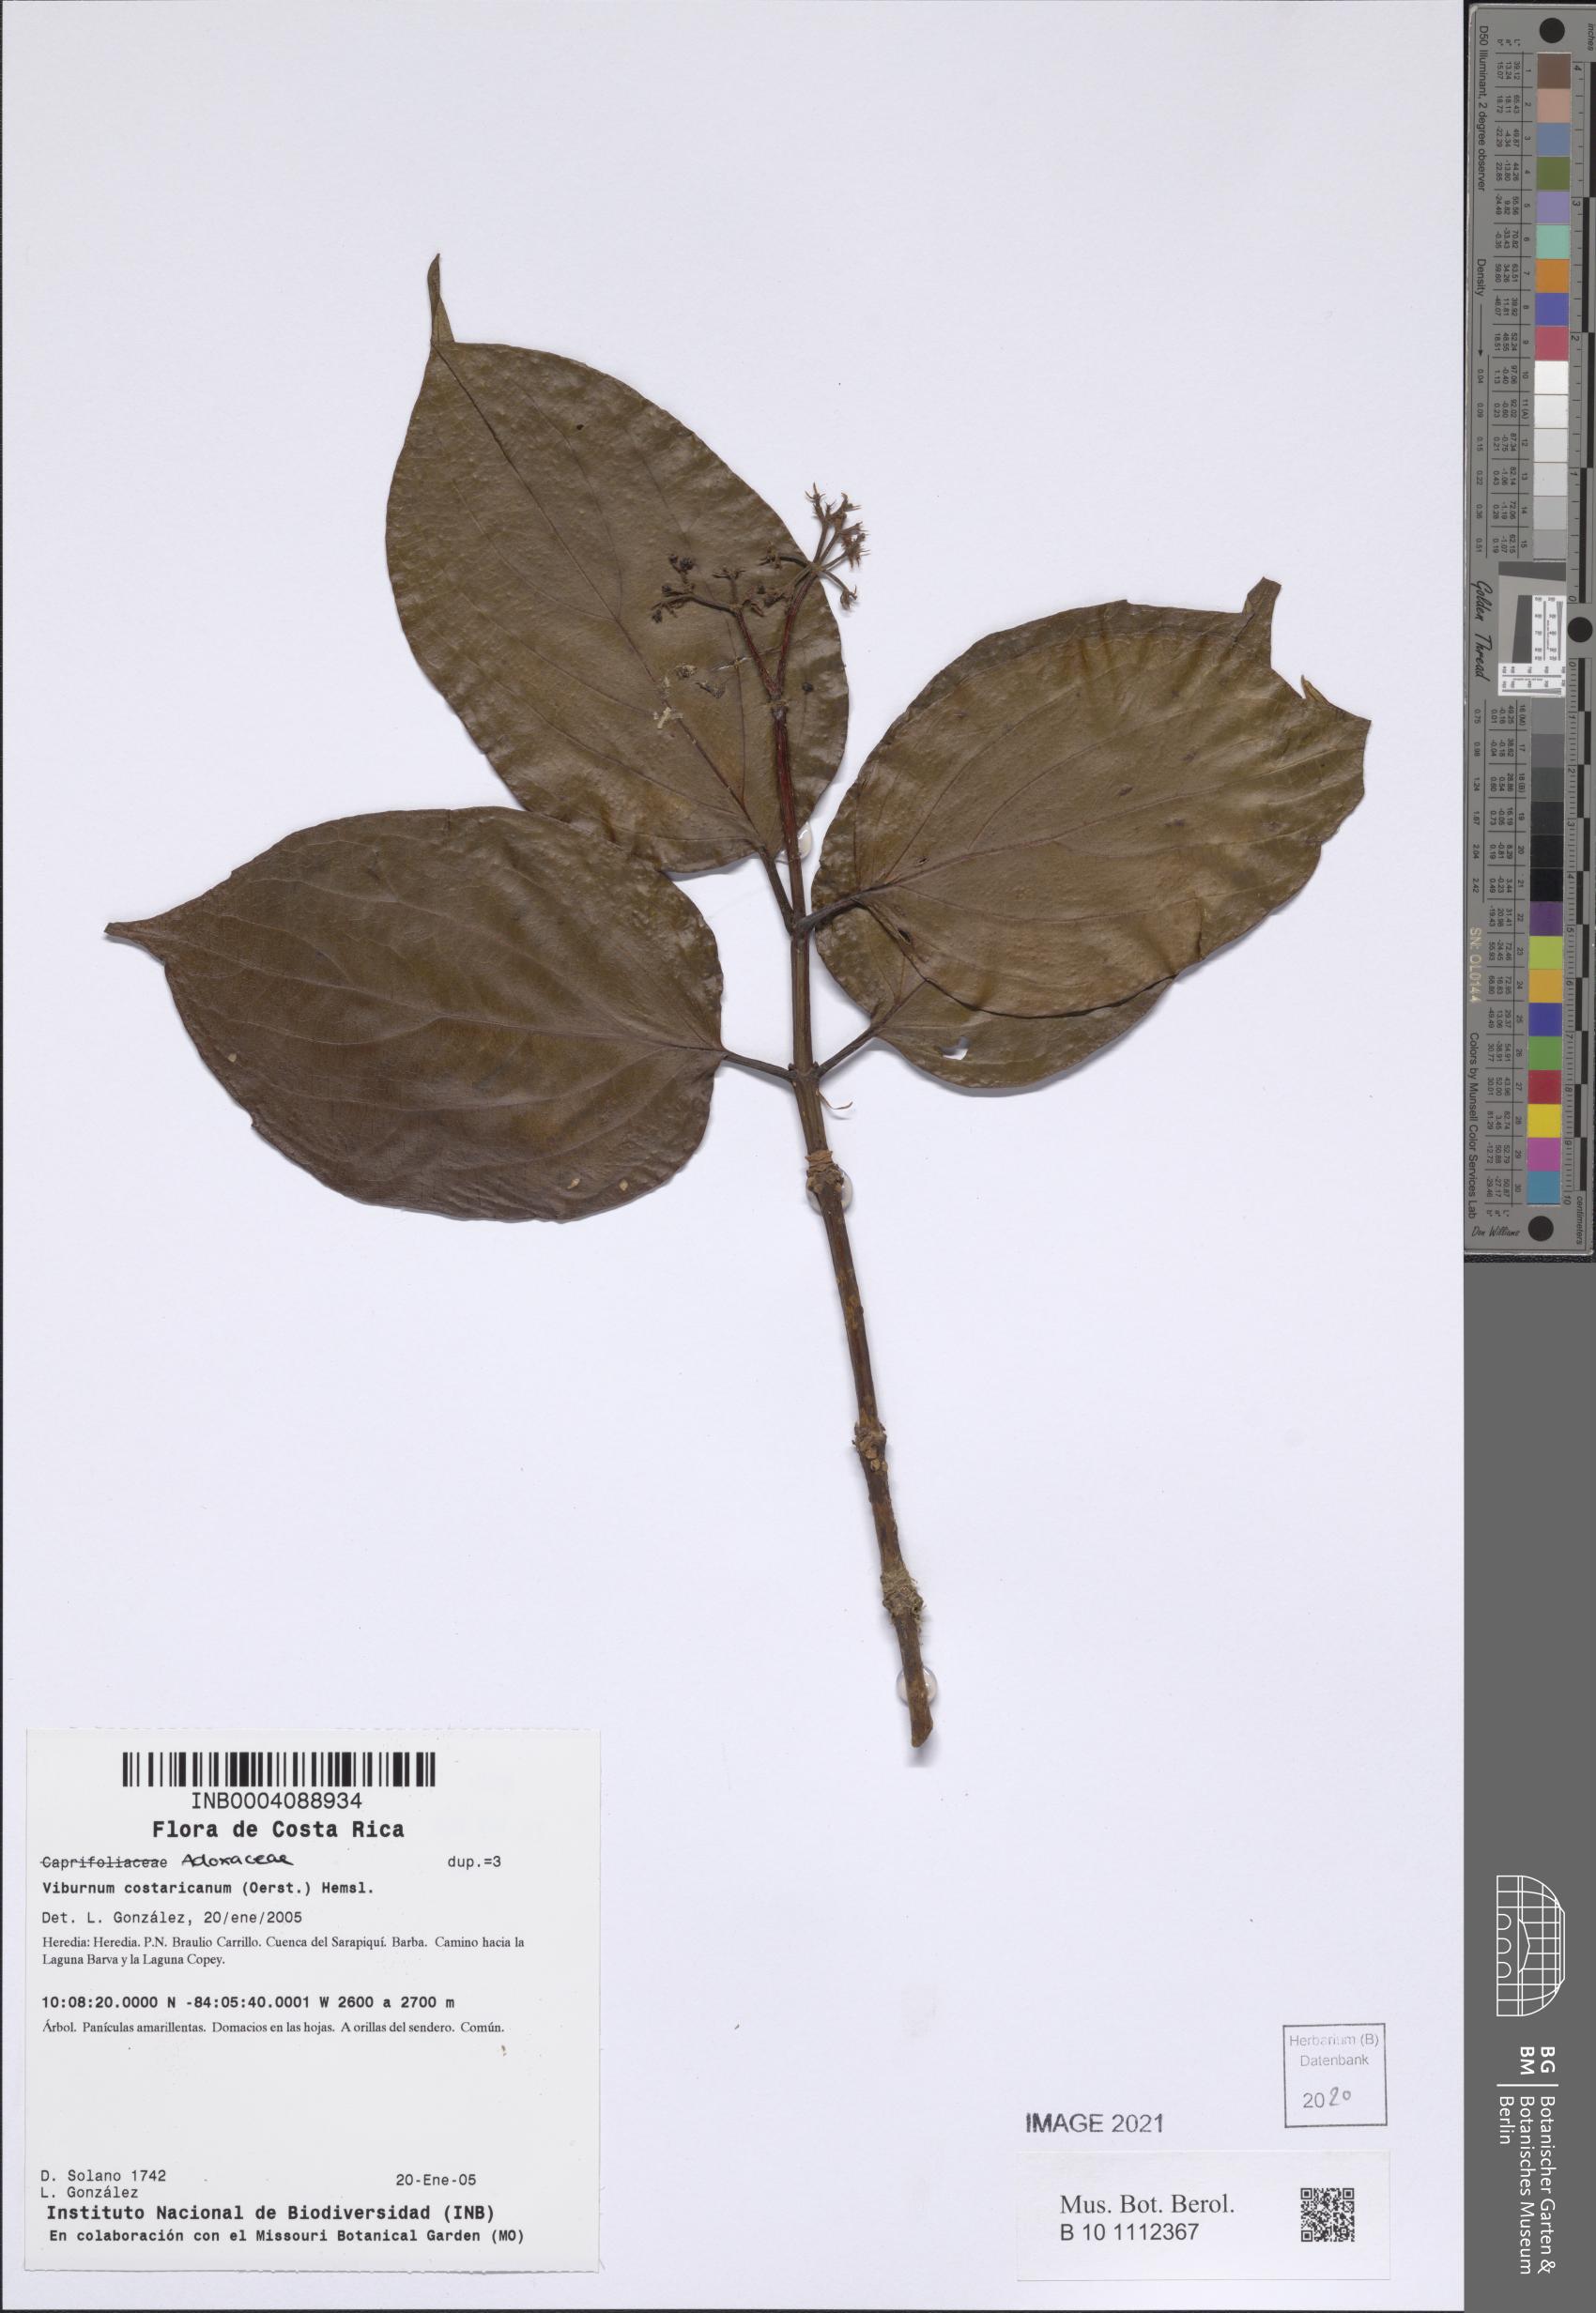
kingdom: Plantae
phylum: Tracheophyta
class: Magnoliopsida
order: Dipsacales
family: Viburnaceae
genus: Viburnum
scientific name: Viburnum costaricanum
